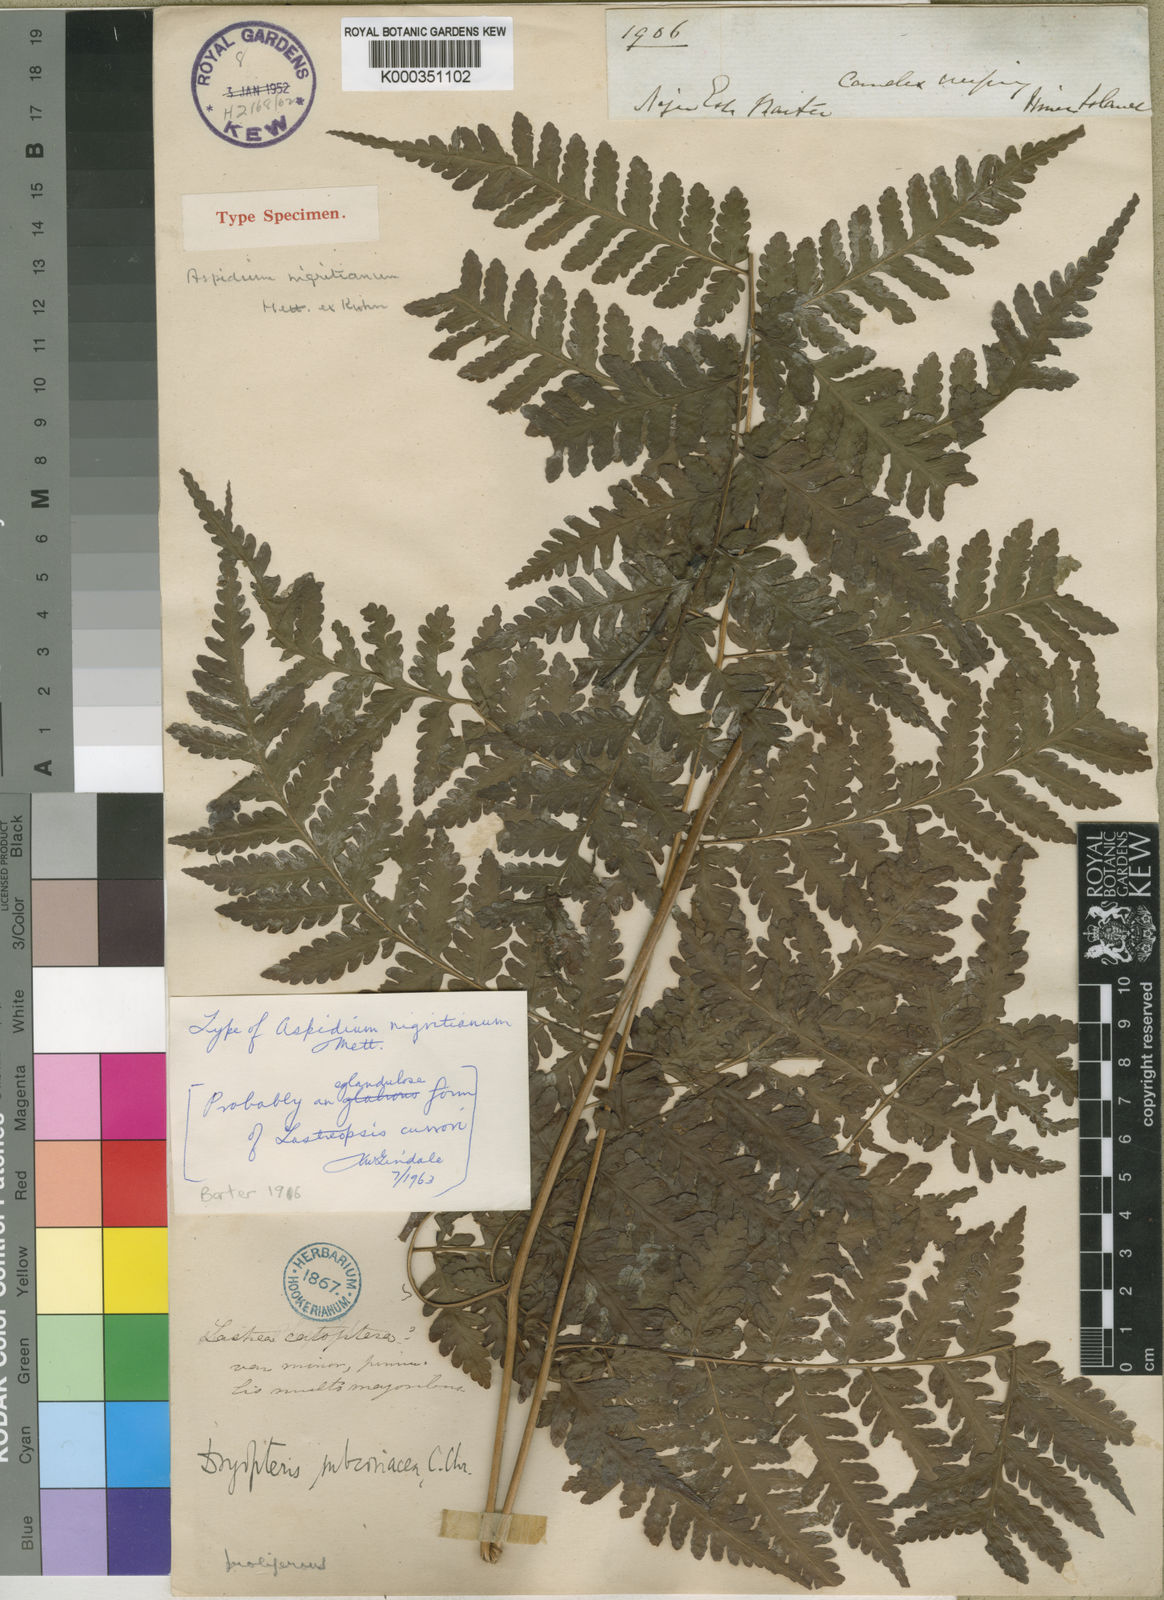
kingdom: Plantae
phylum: Tracheophyta
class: Polypodiopsida
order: Polypodiales
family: Dryopteridaceae
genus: Parapolystichum
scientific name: Parapolystichum currorii
